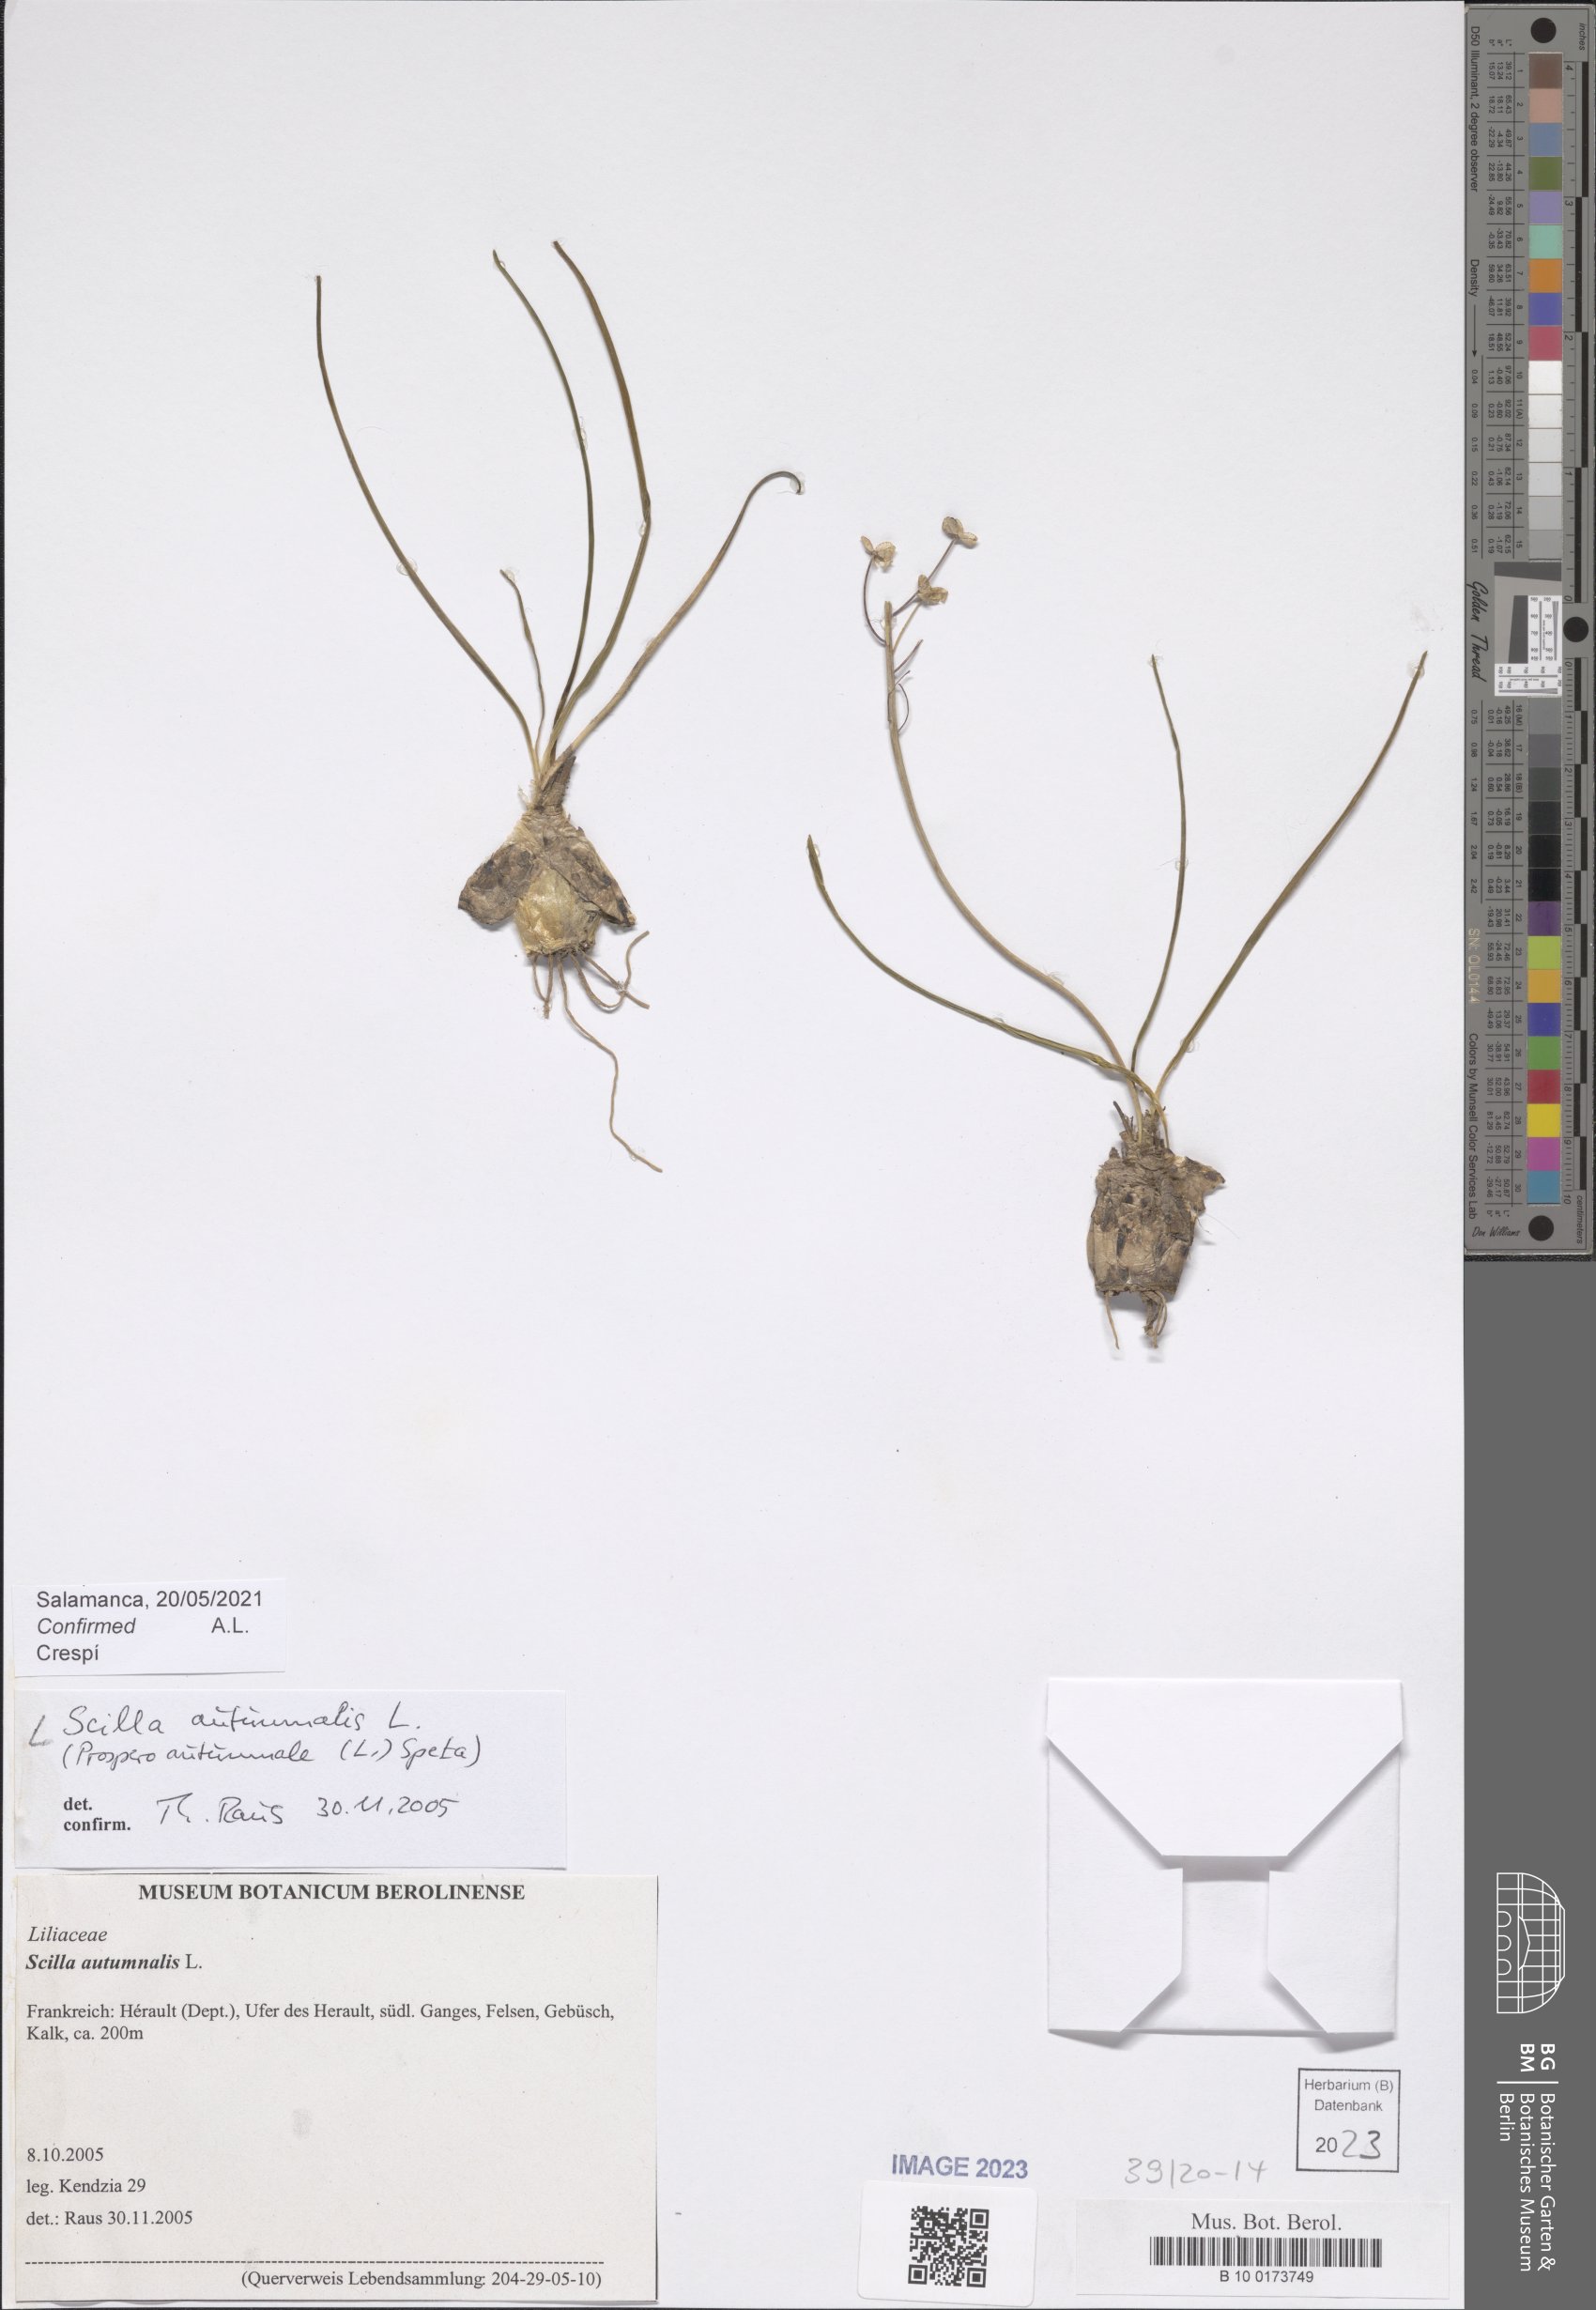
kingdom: Plantae
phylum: Tracheophyta
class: Liliopsida
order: Asparagales
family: Asparagaceae
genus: Prospero
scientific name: Prospero autumnale
